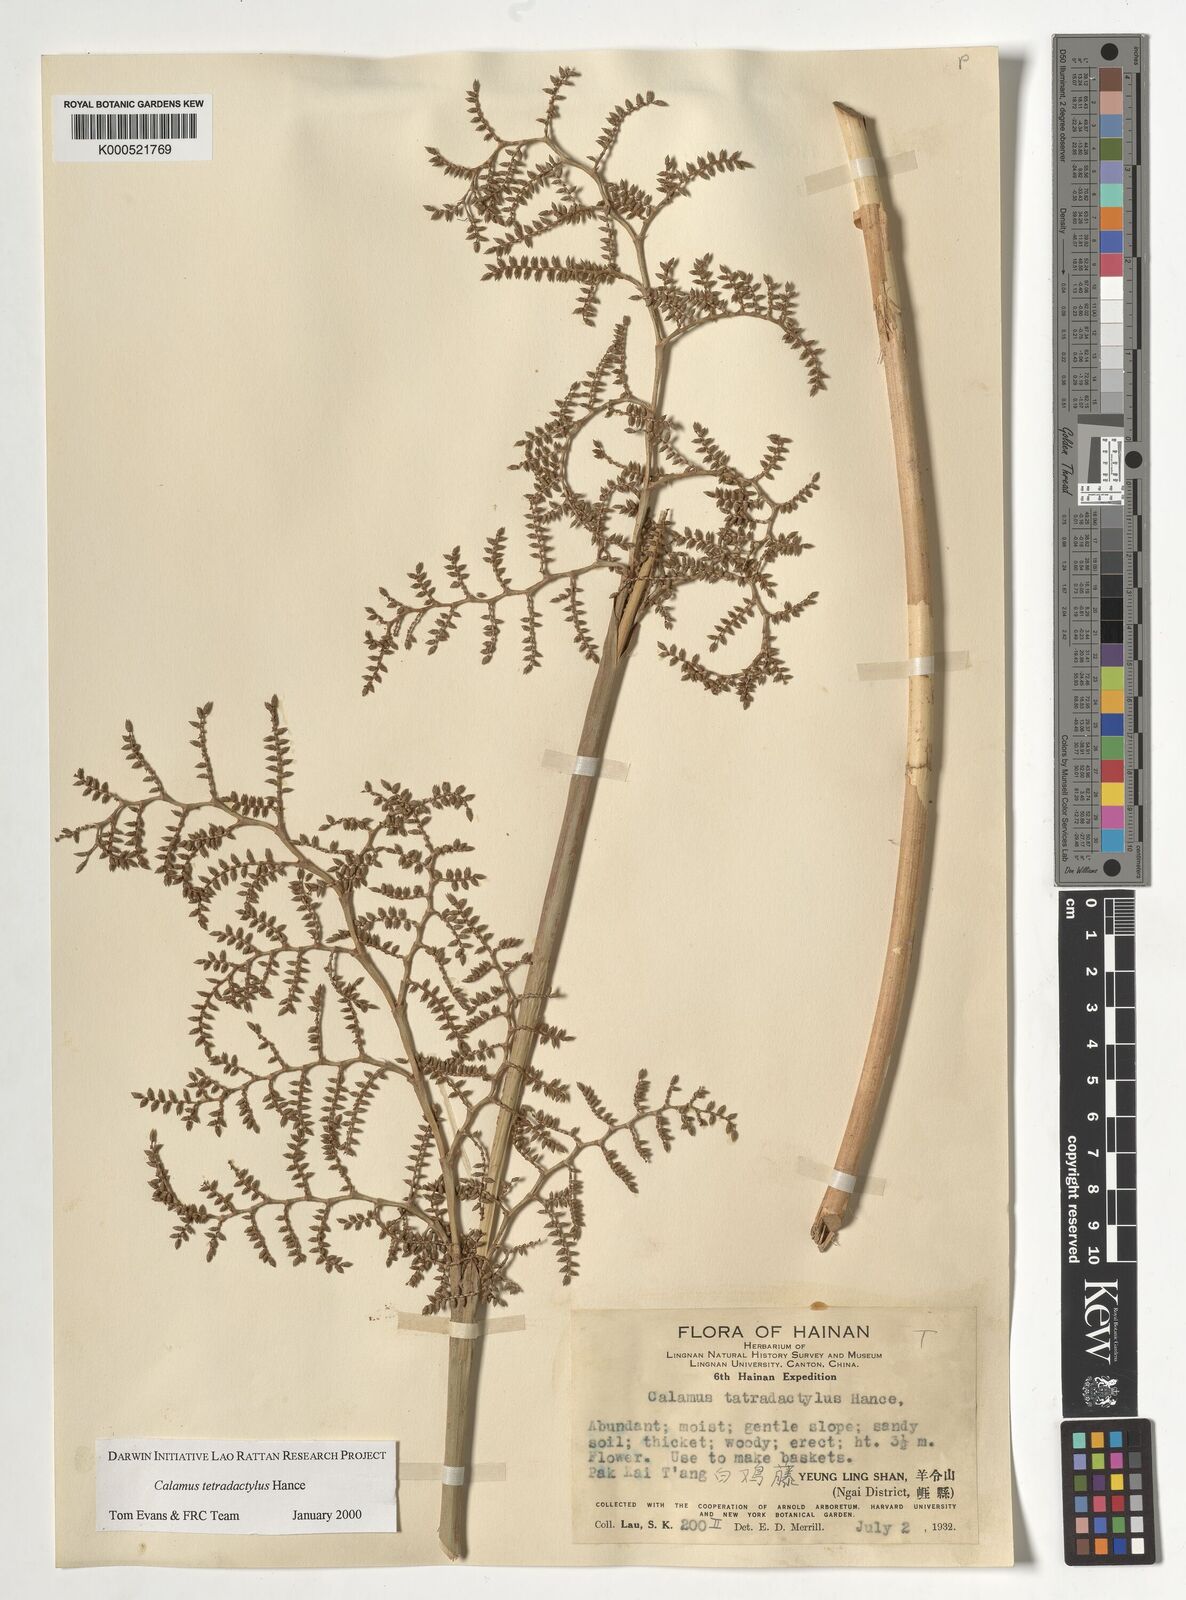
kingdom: Plantae
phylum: Tracheophyta
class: Liliopsida
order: Arecales
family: Arecaceae
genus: Calamus
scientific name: Calamus tetradactylus
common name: White rattan
